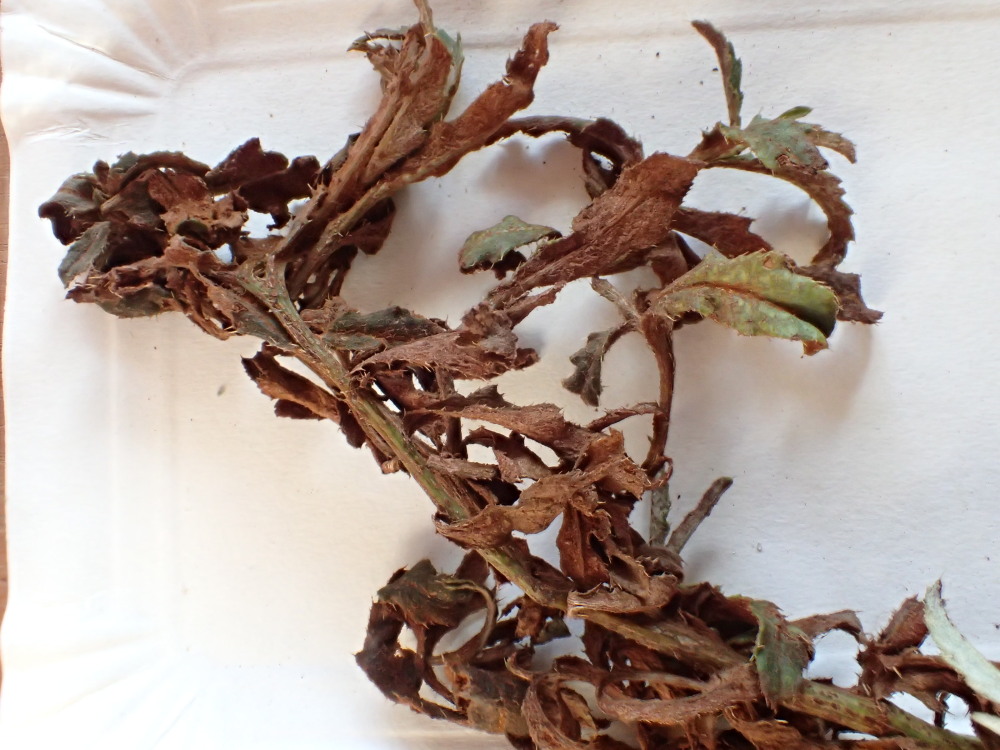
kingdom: Fungi
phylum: Basidiomycota
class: Pucciniomycetes
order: Pucciniales
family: Pucciniaceae
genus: Puccinia
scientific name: Puccinia suaveolens
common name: tidsel-tvecellerust
